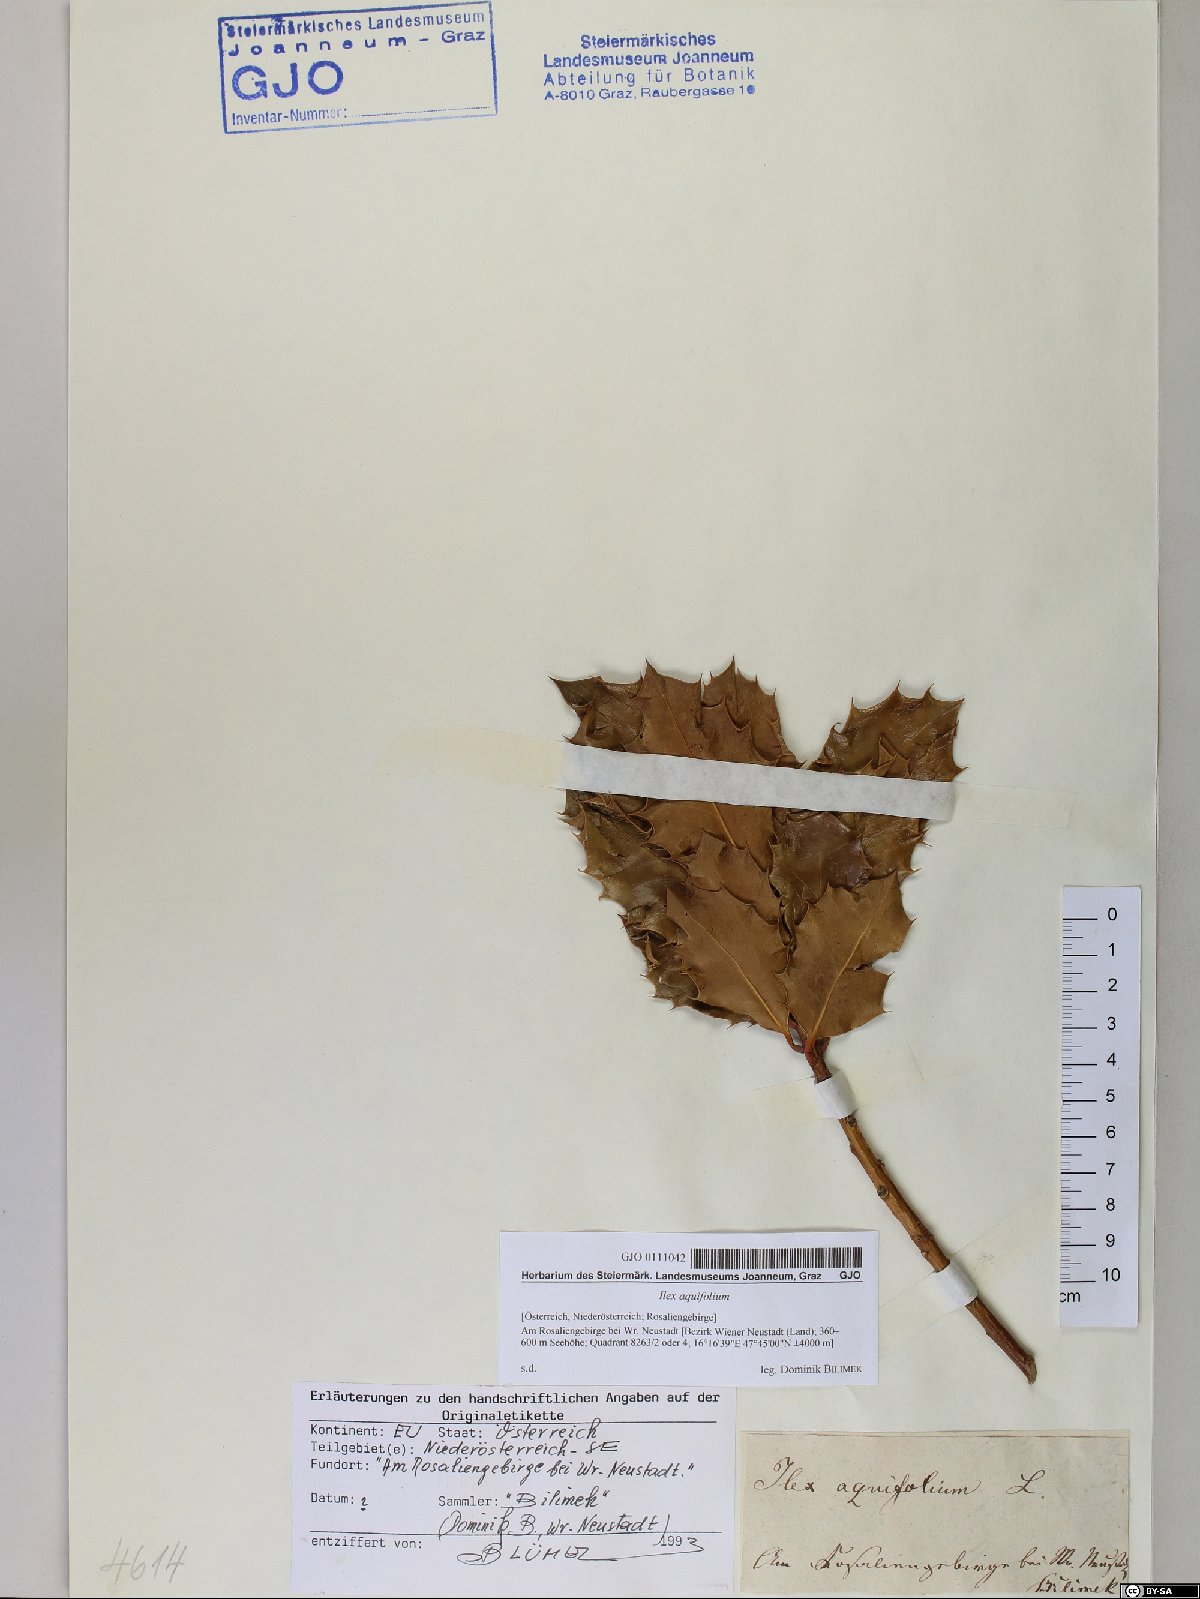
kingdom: Plantae
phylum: Tracheophyta
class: Magnoliopsida
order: Aquifoliales
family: Aquifoliaceae
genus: Ilex
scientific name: Ilex aquifolium
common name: English holly
